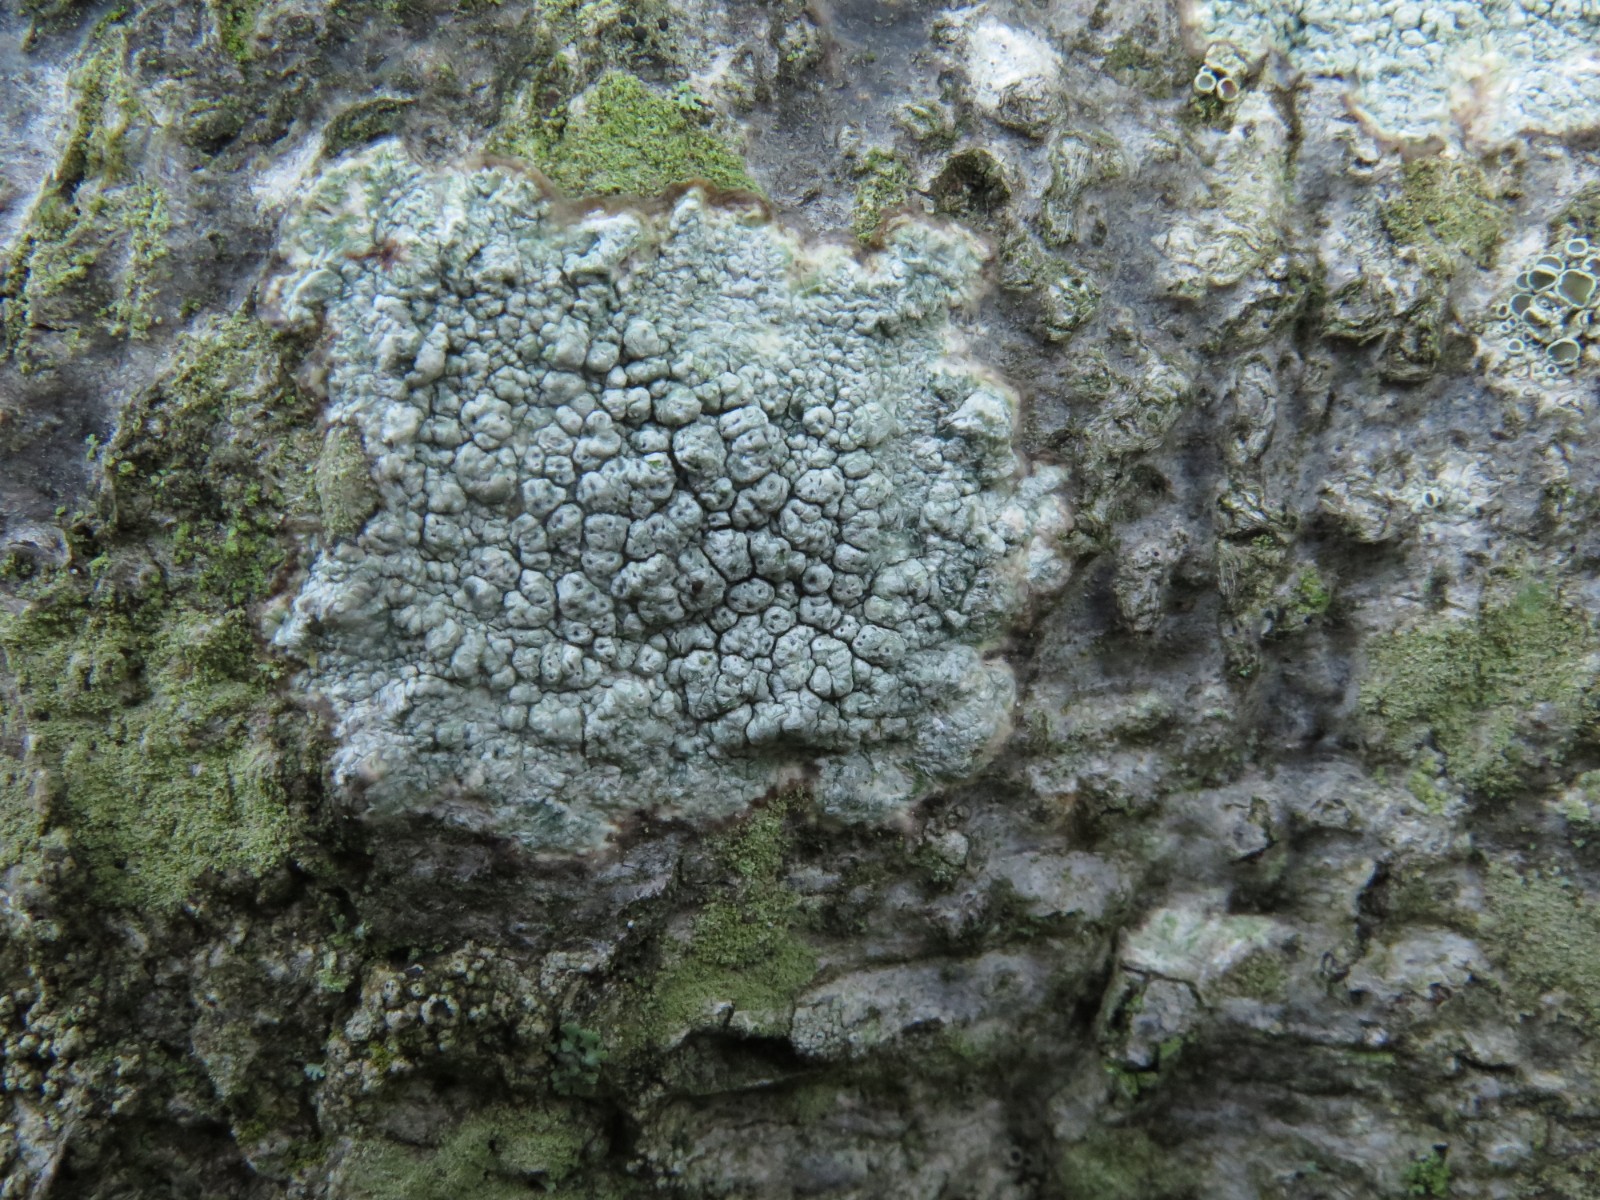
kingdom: Fungi
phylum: Ascomycota
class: Lecanoromycetes
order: Pertusariales
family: Pertusariaceae
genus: Pertusaria
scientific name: Pertusaria pertusa
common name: almindelig prikvortelav
